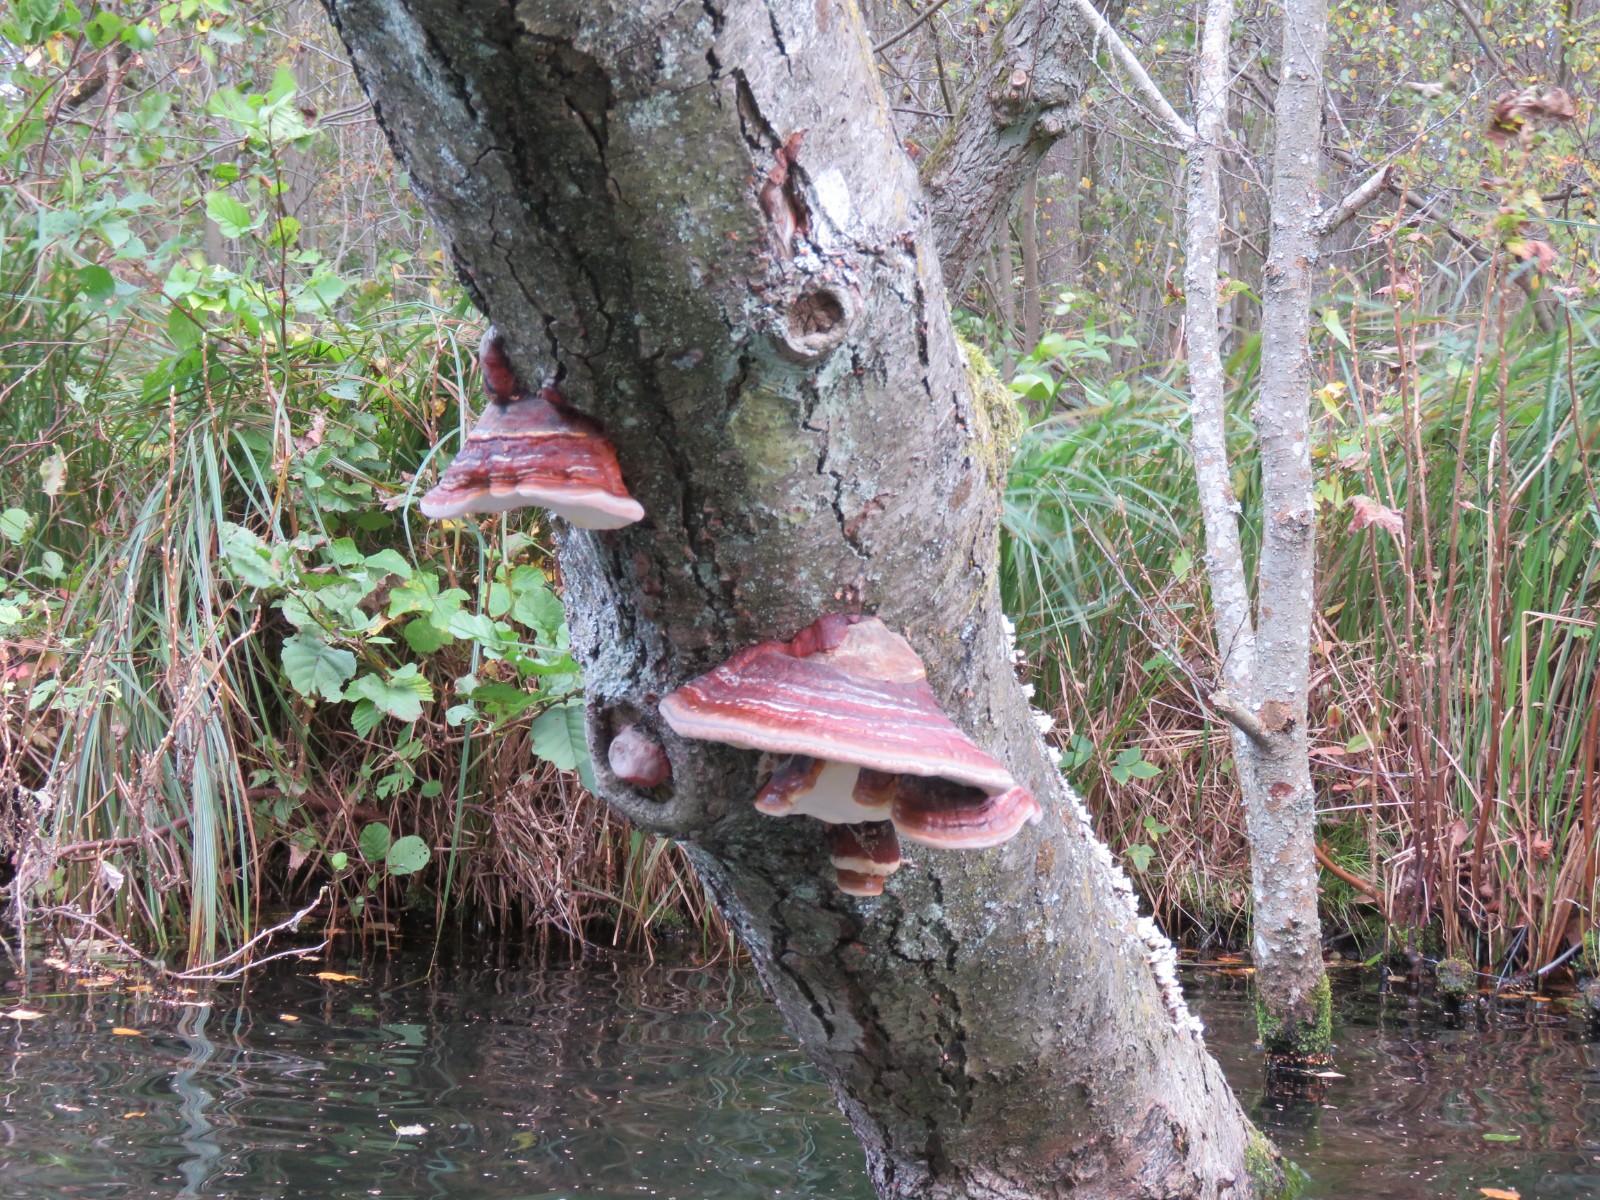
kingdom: Fungi
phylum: Basidiomycota
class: Agaricomycetes
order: Polyporales
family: Fomitopsidaceae
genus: Fomitopsis
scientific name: Fomitopsis pinicola
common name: randbæltet hovporesvamp
